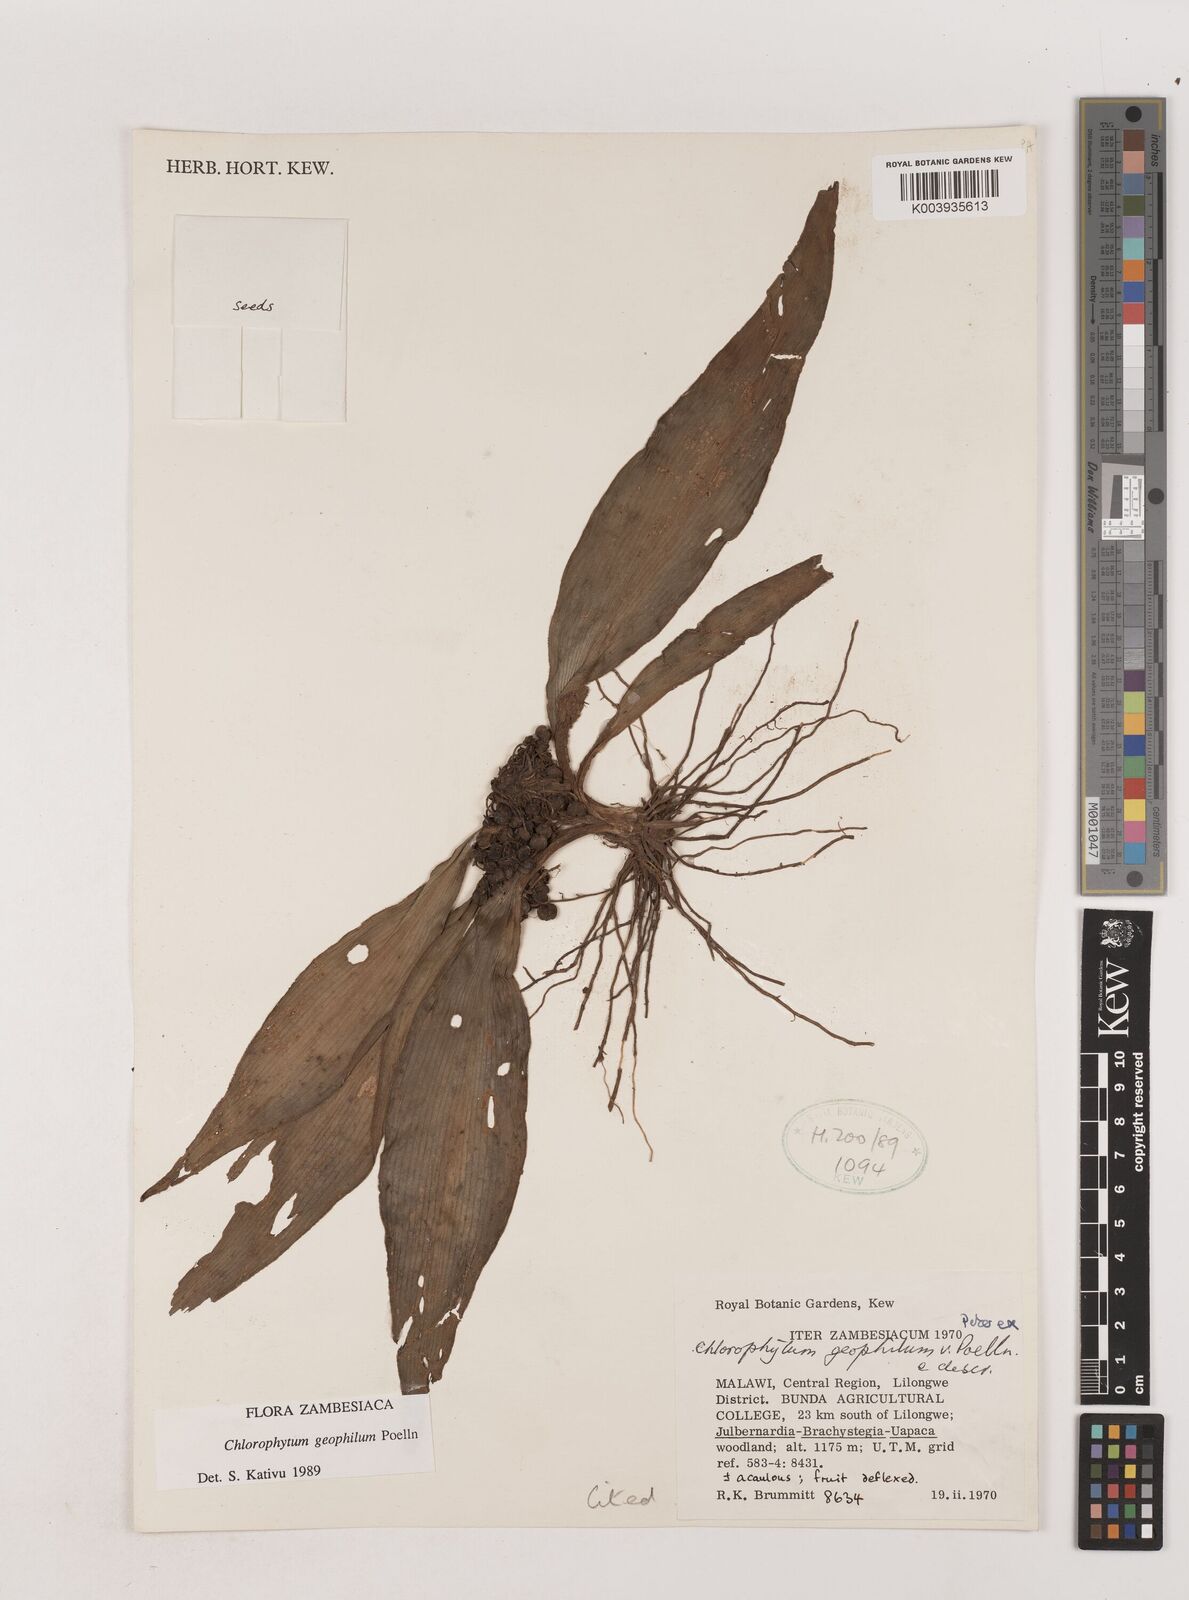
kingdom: Plantae
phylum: Tracheophyta
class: Liliopsida
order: Asparagales
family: Asparagaceae
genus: Chlorophytum
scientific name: Chlorophytum geophilum
